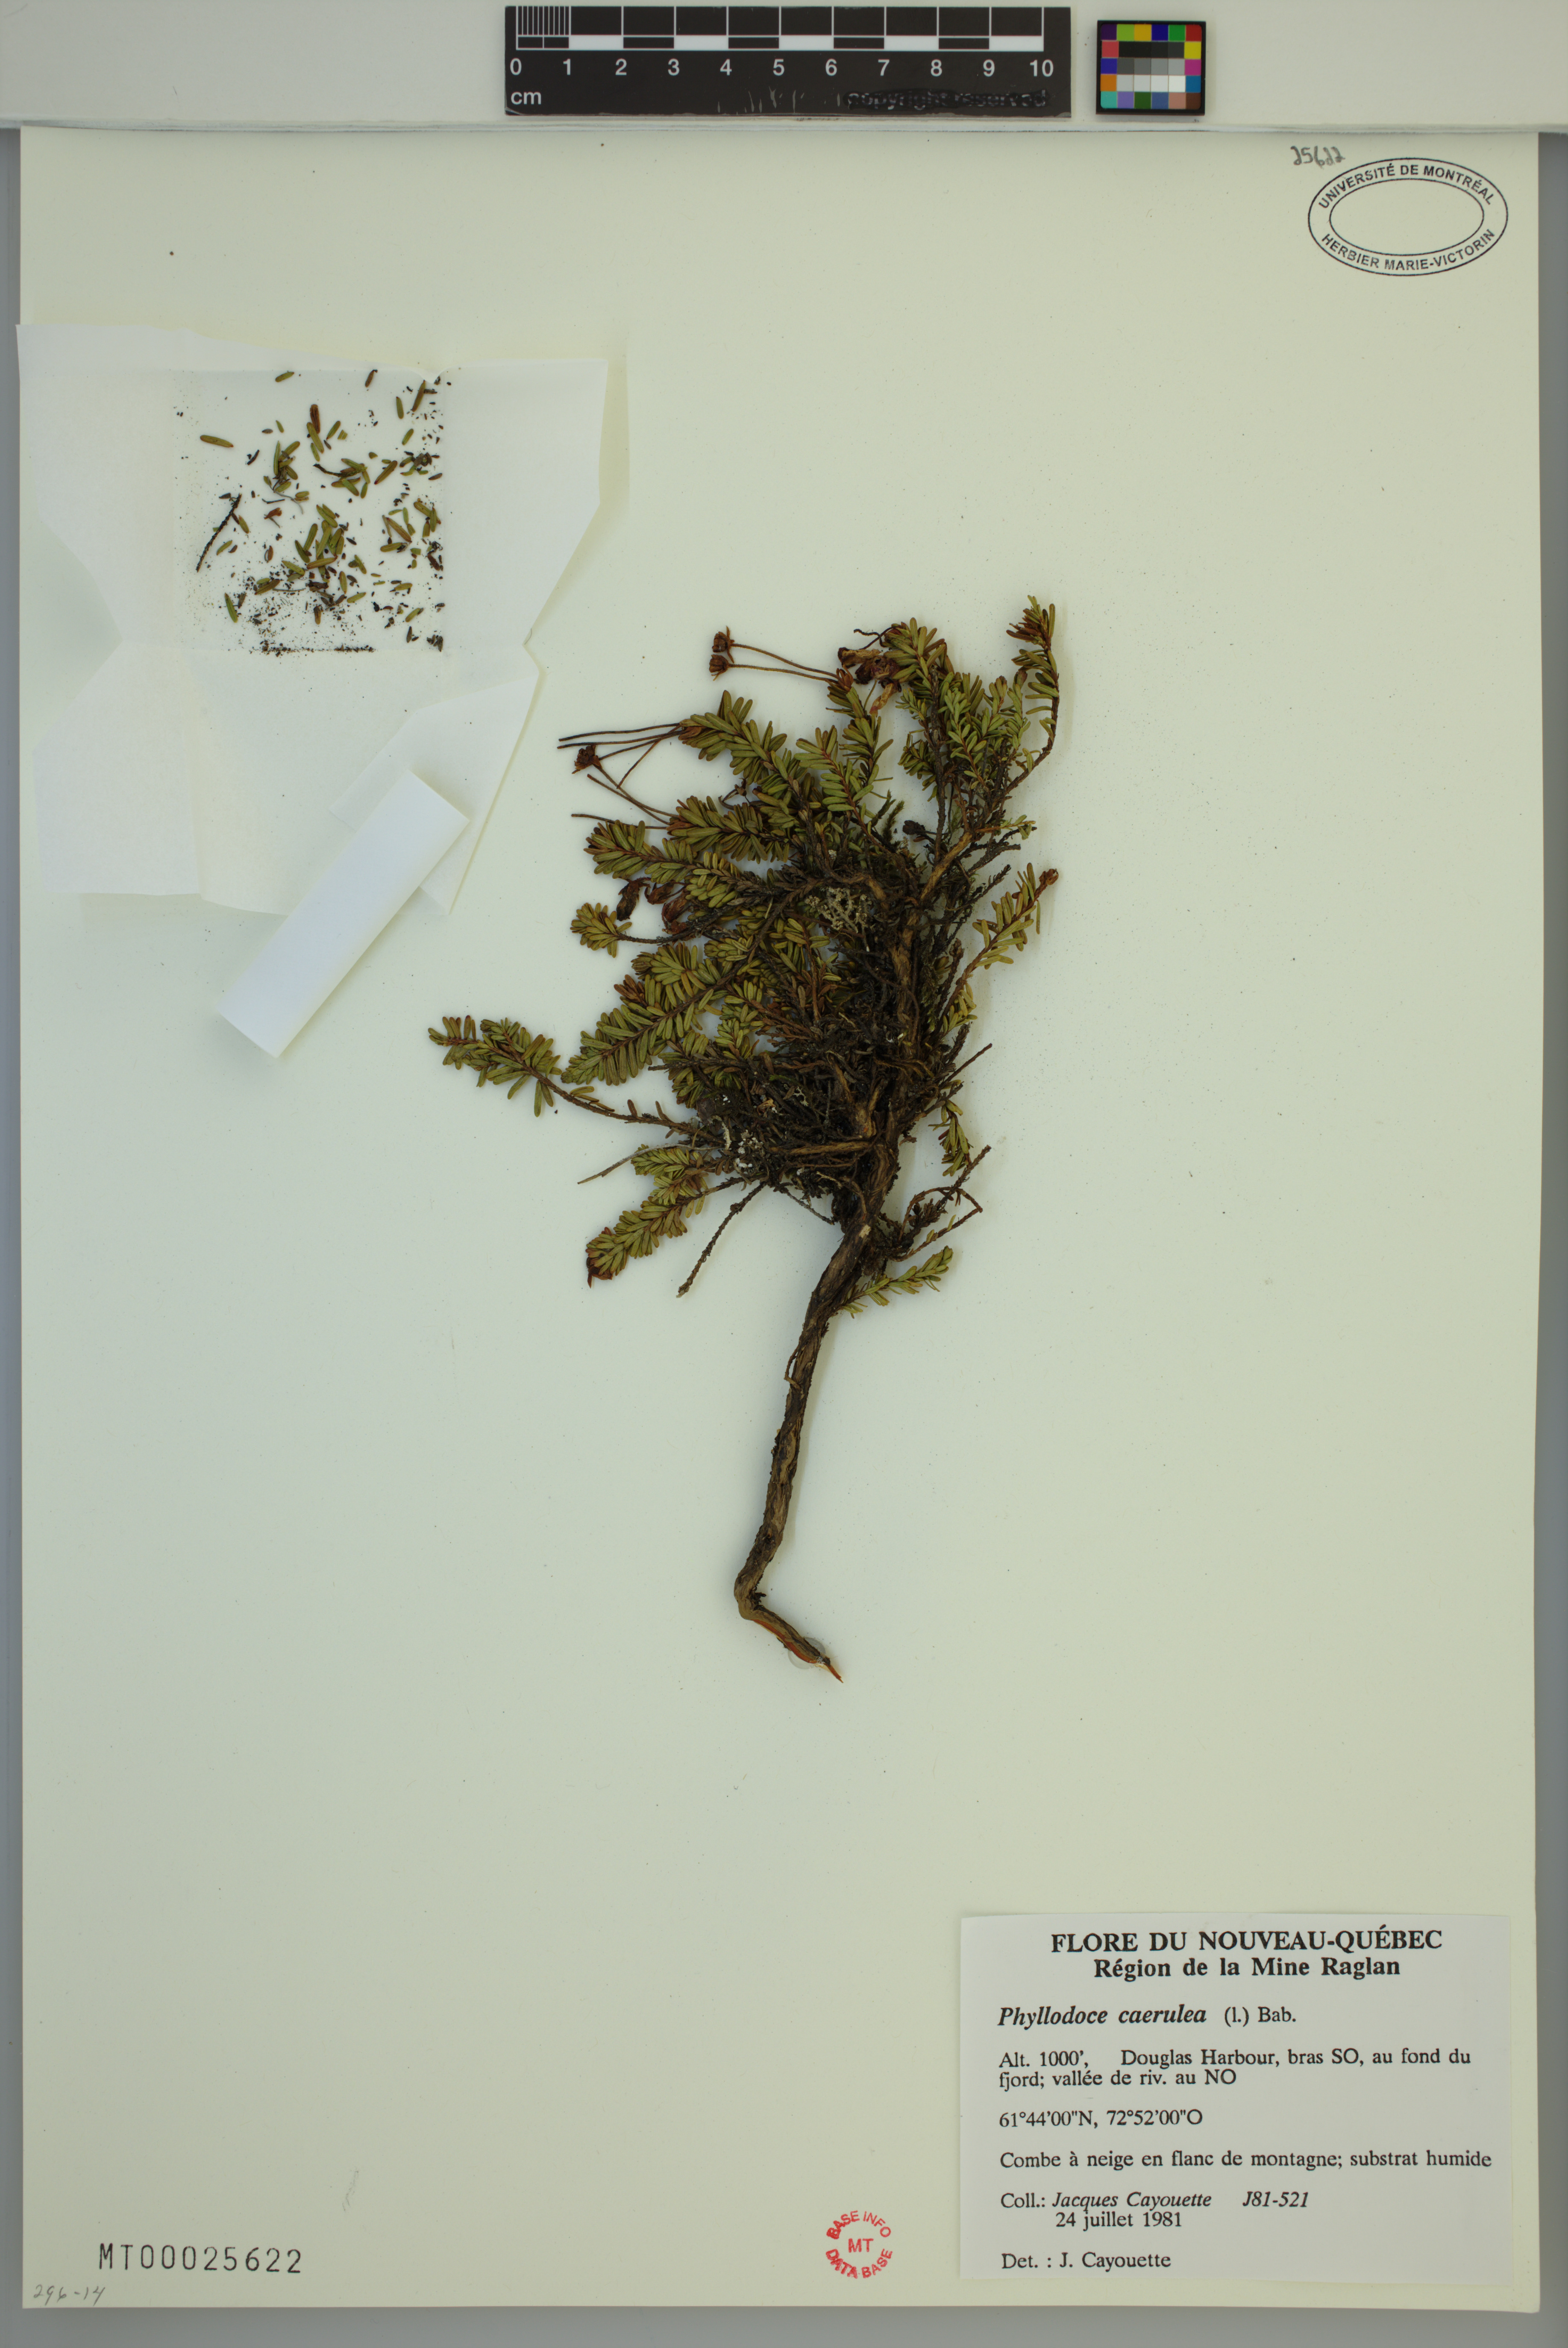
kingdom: Plantae
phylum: Tracheophyta
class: Magnoliopsida
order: Ericales
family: Ericaceae
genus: Phyllodoce
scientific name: Phyllodoce caerulea
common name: Blue heath
